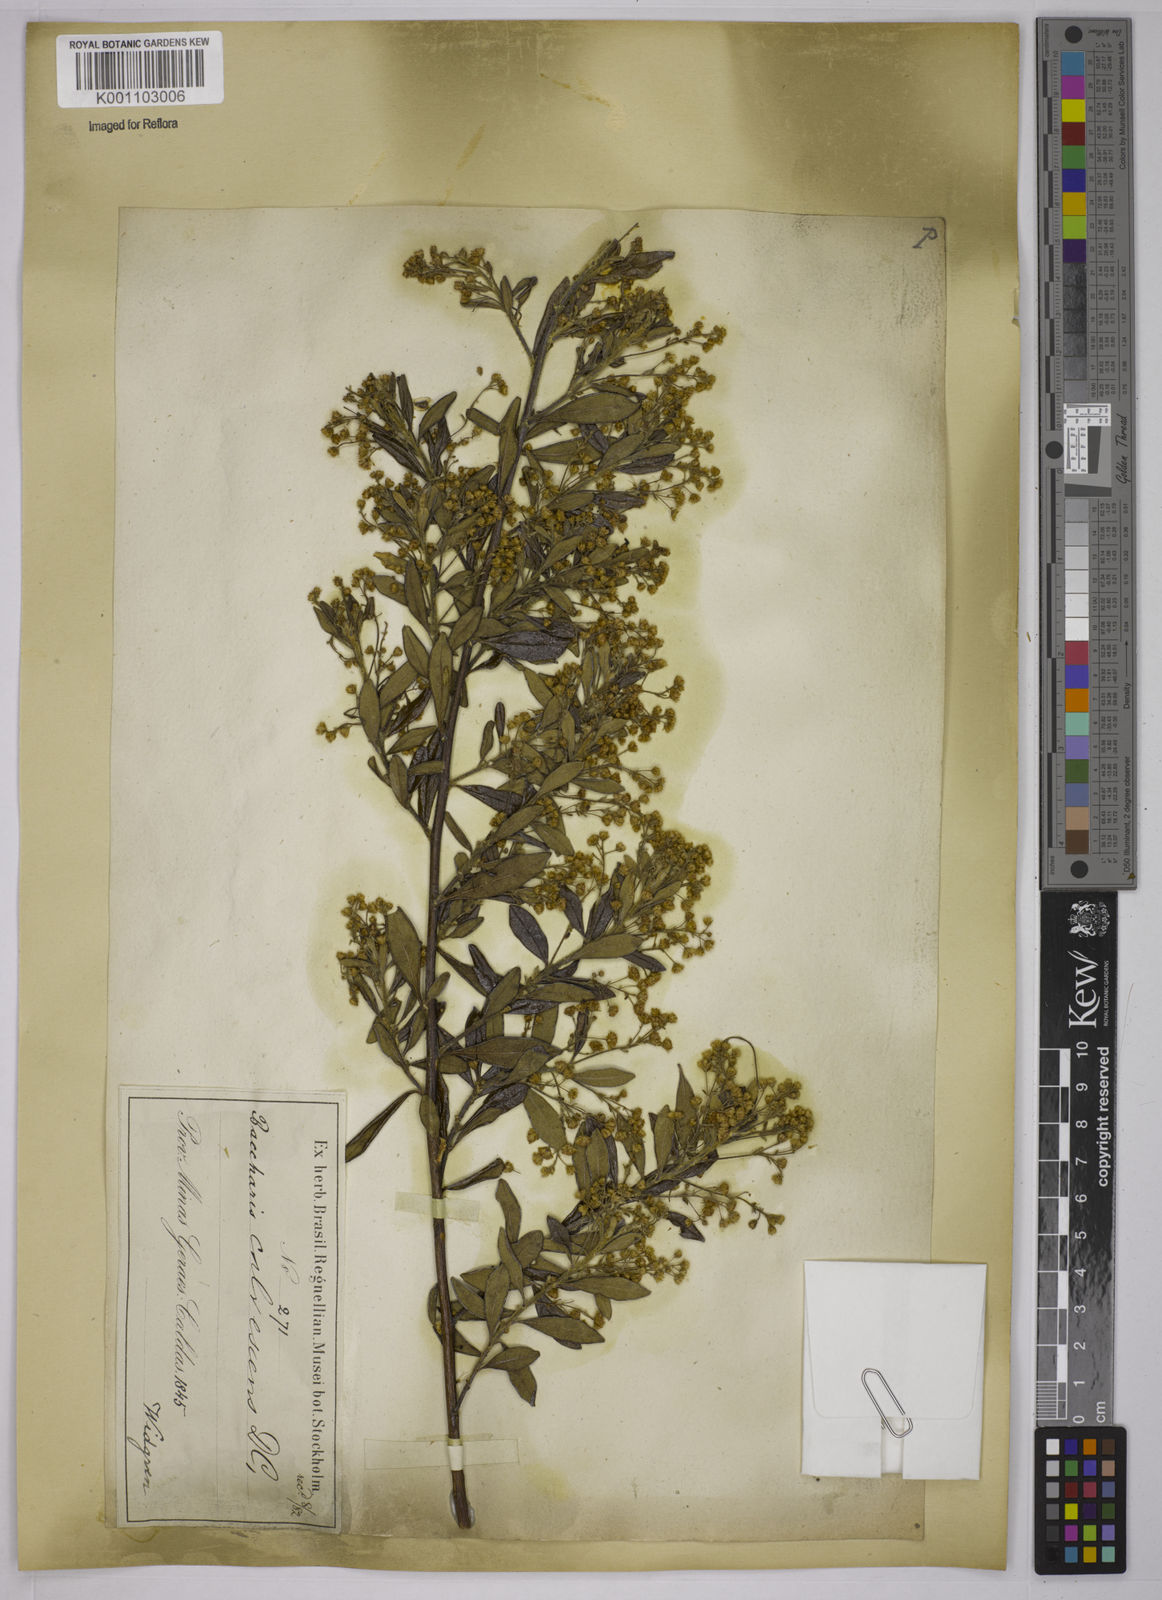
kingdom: Plantae
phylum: Tracheophyta
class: Magnoliopsida
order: Asterales
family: Asteraceae
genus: Baccharis
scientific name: Baccharis calvescens
